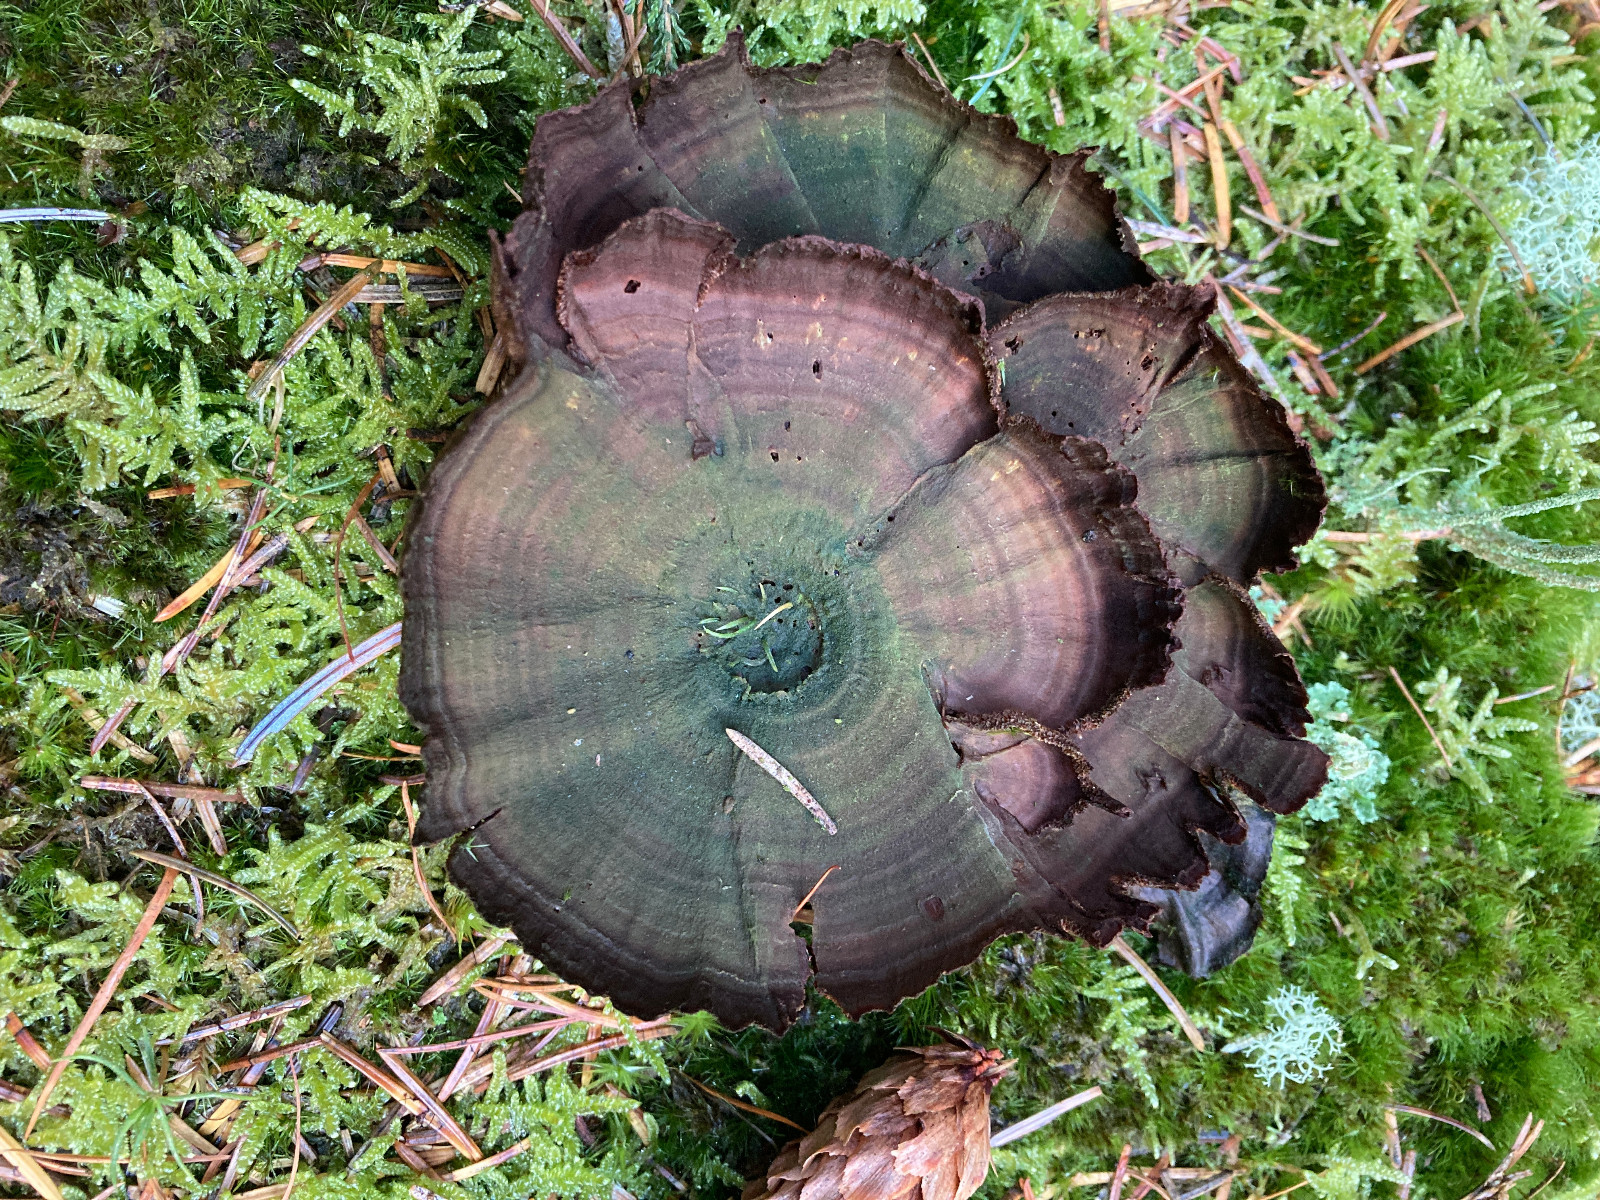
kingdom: Fungi
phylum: Basidiomycota
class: Agaricomycetes
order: Hymenochaetales
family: Hymenochaetaceae
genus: Coltricia
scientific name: Coltricia perennis
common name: almindelig sandporesvamp
